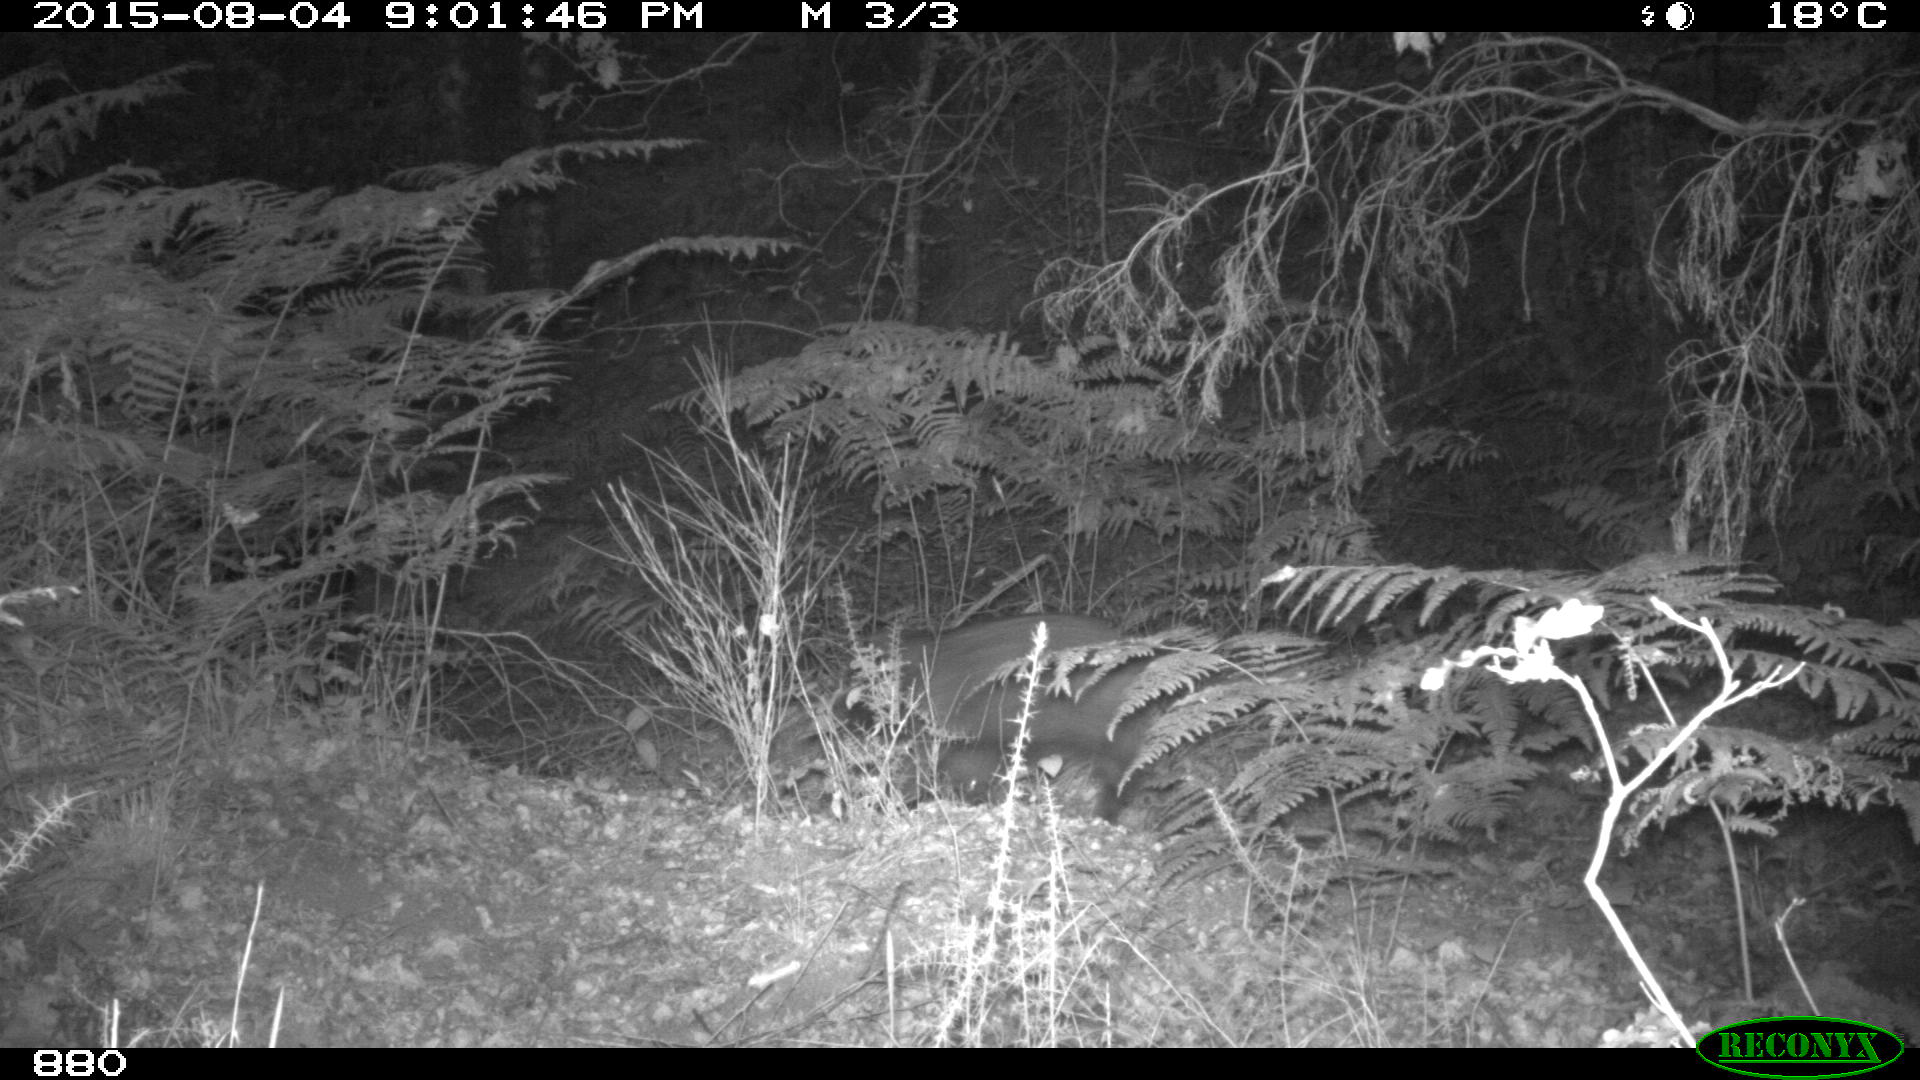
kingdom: Animalia
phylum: Chordata
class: Mammalia
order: Artiodactyla
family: Suidae
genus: Sus
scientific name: Sus scrofa
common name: Wild boar
